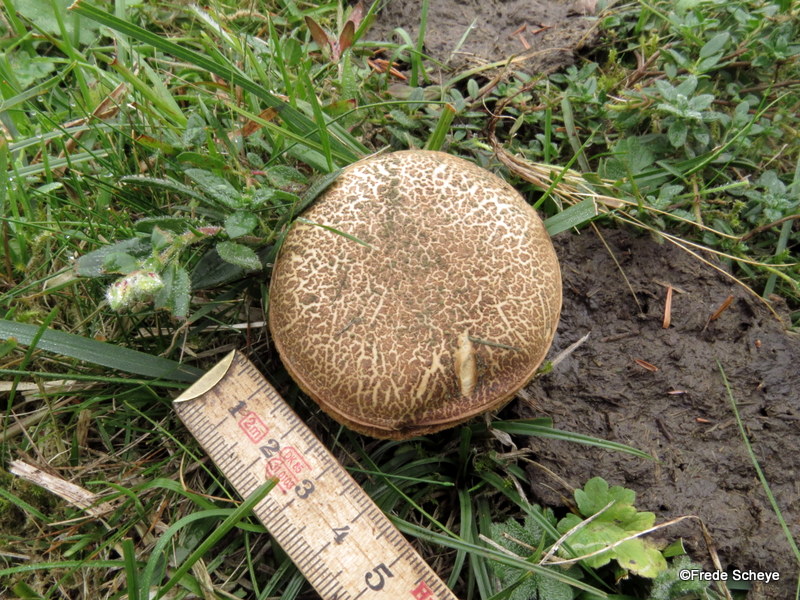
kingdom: Fungi
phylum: Basidiomycota
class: Agaricomycetes
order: Boletales
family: Boletaceae
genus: Xerocomellus
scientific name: Xerocomellus chrysenteron
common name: rødsprukken rørhat
